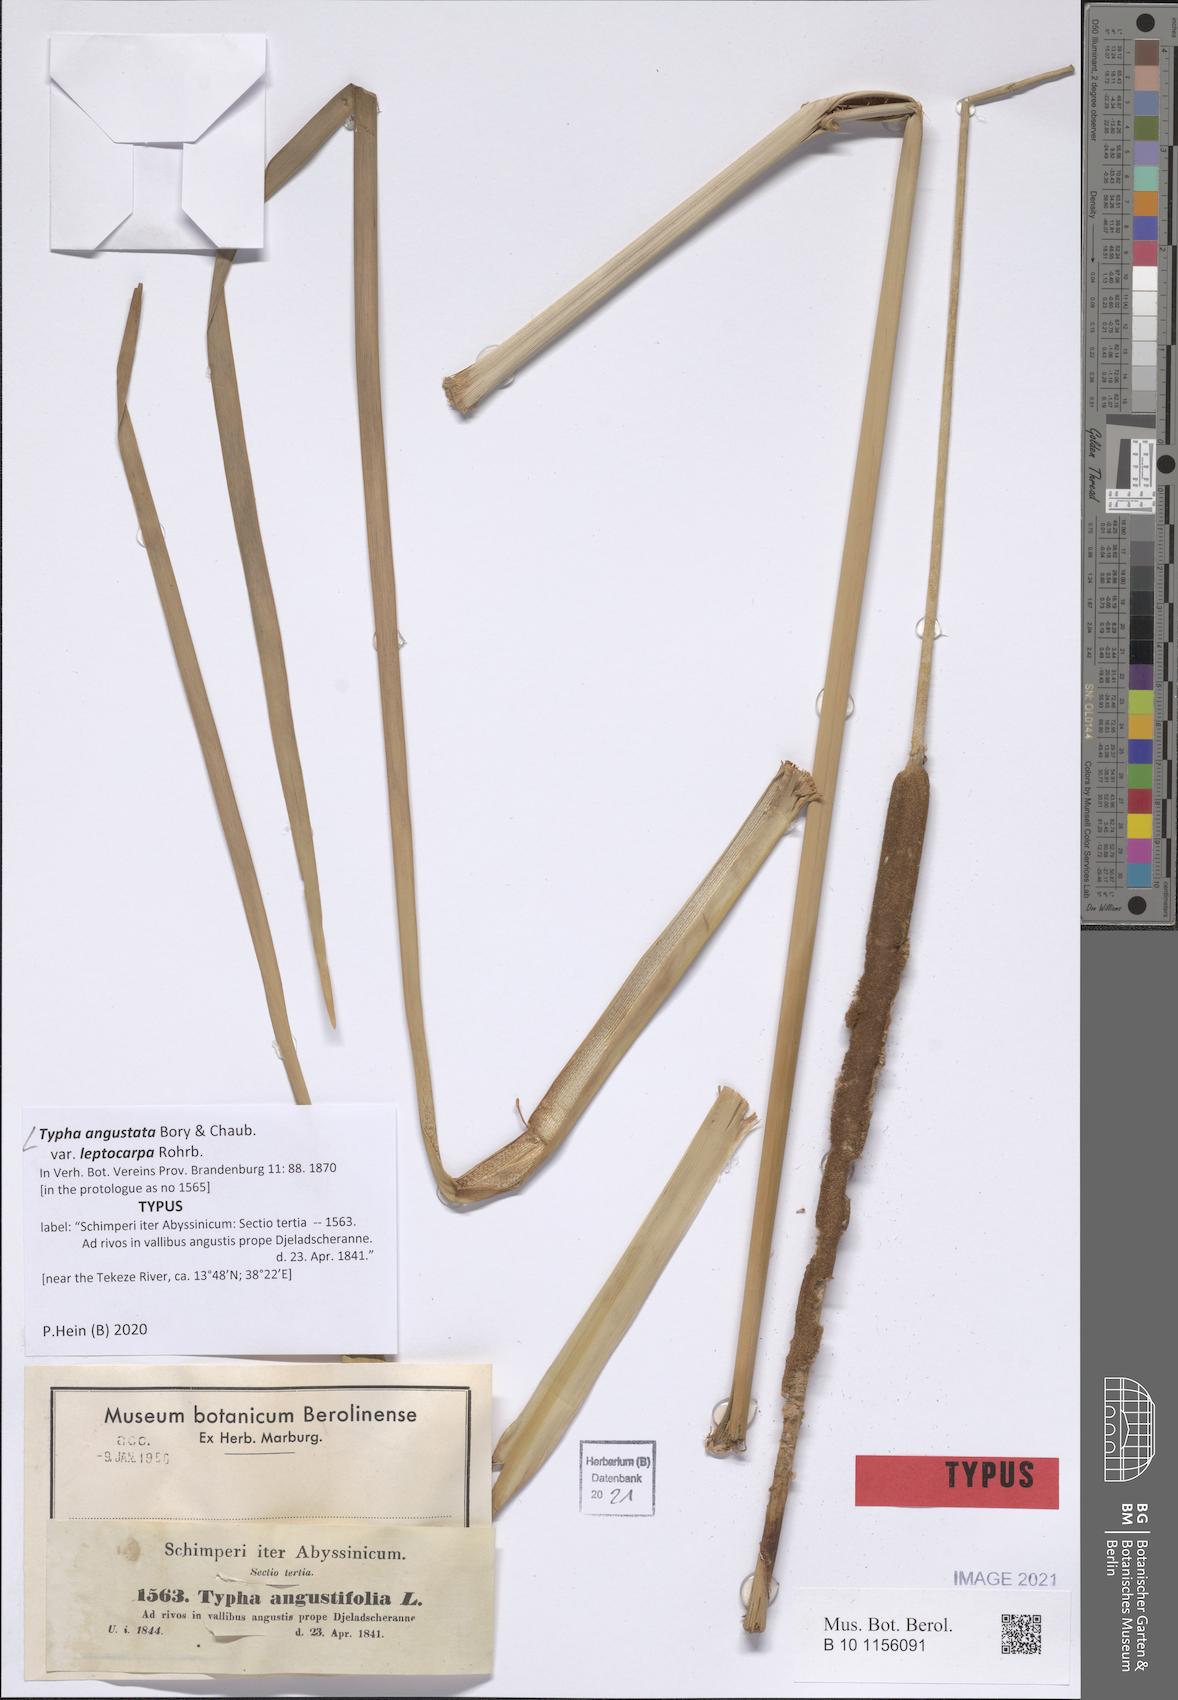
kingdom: Plantae
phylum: Tracheophyta
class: Liliopsida
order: Poales
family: Typhaceae
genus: Typha
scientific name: Typha domingensis
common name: Southern cattail
